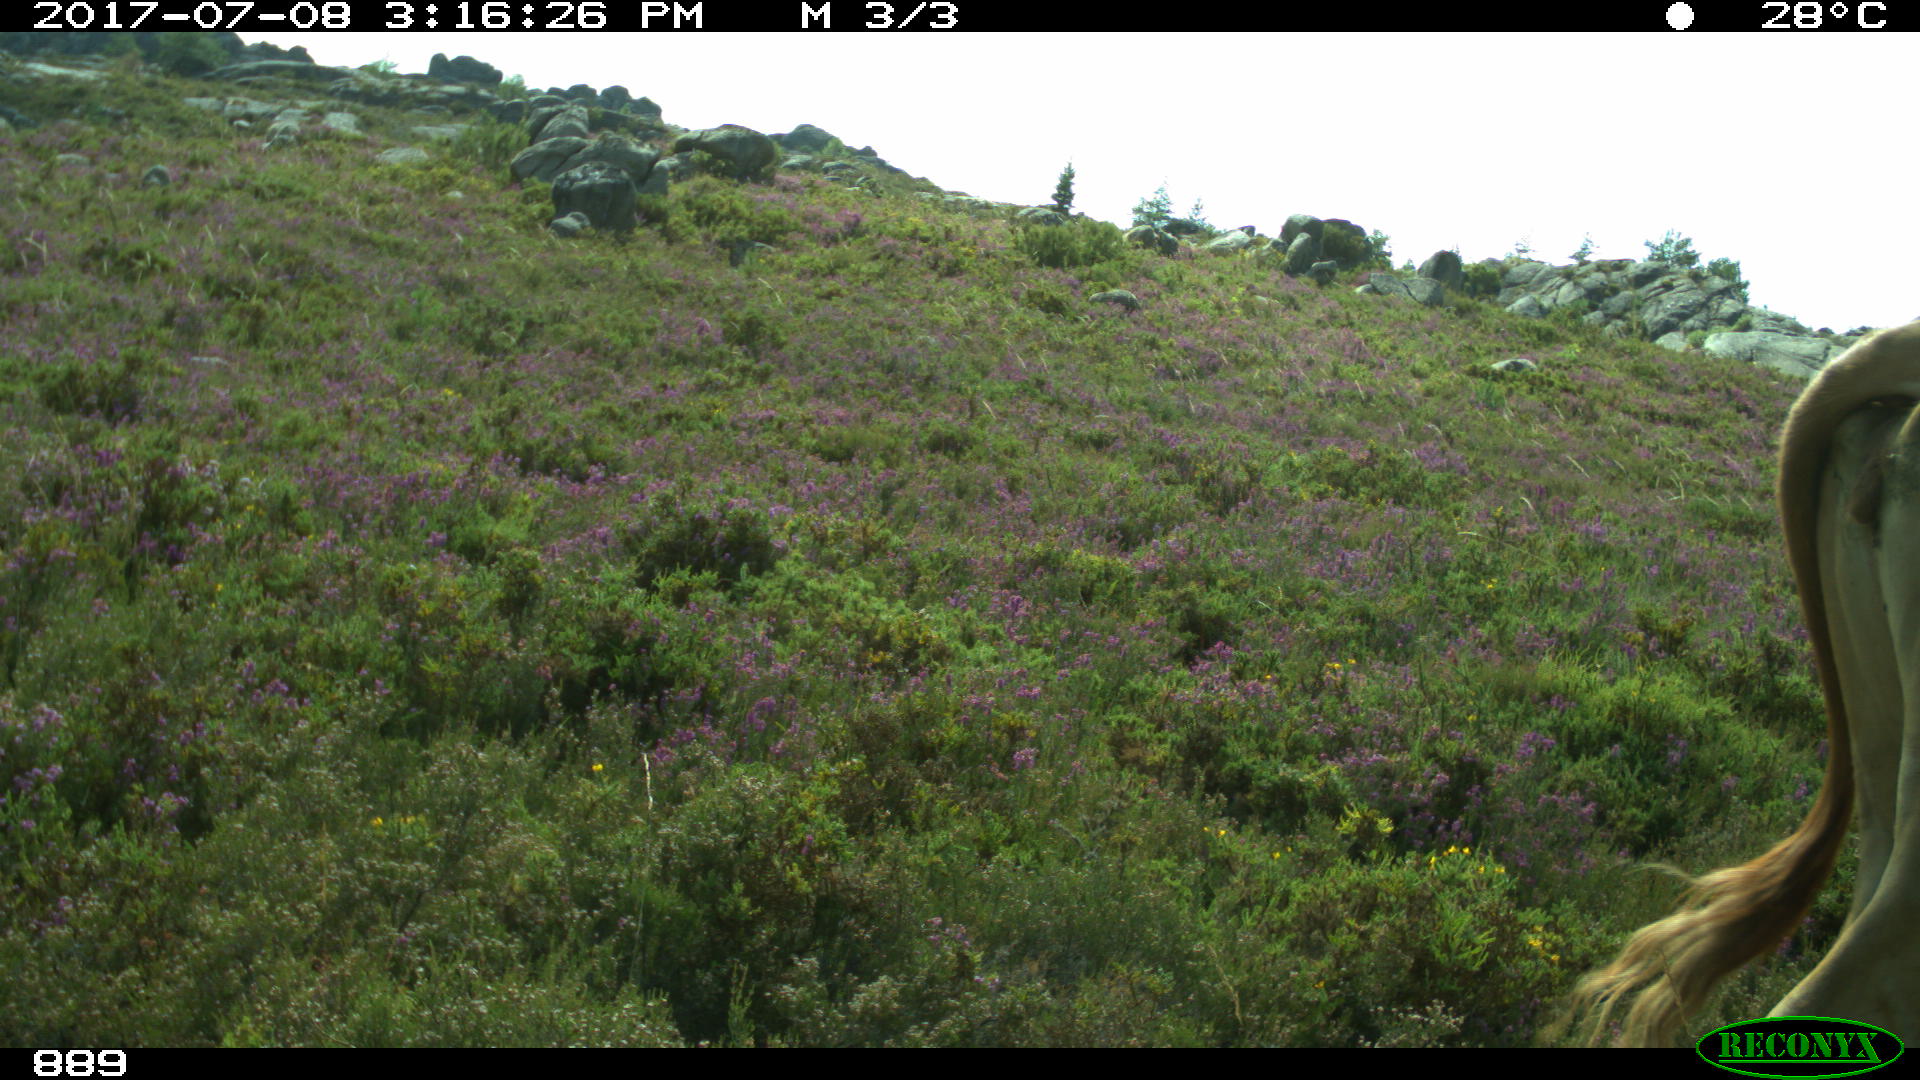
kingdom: Animalia
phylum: Chordata
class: Mammalia
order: Artiodactyla
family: Bovidae
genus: Bos
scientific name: Bos taurus
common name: Domesticated cattle
